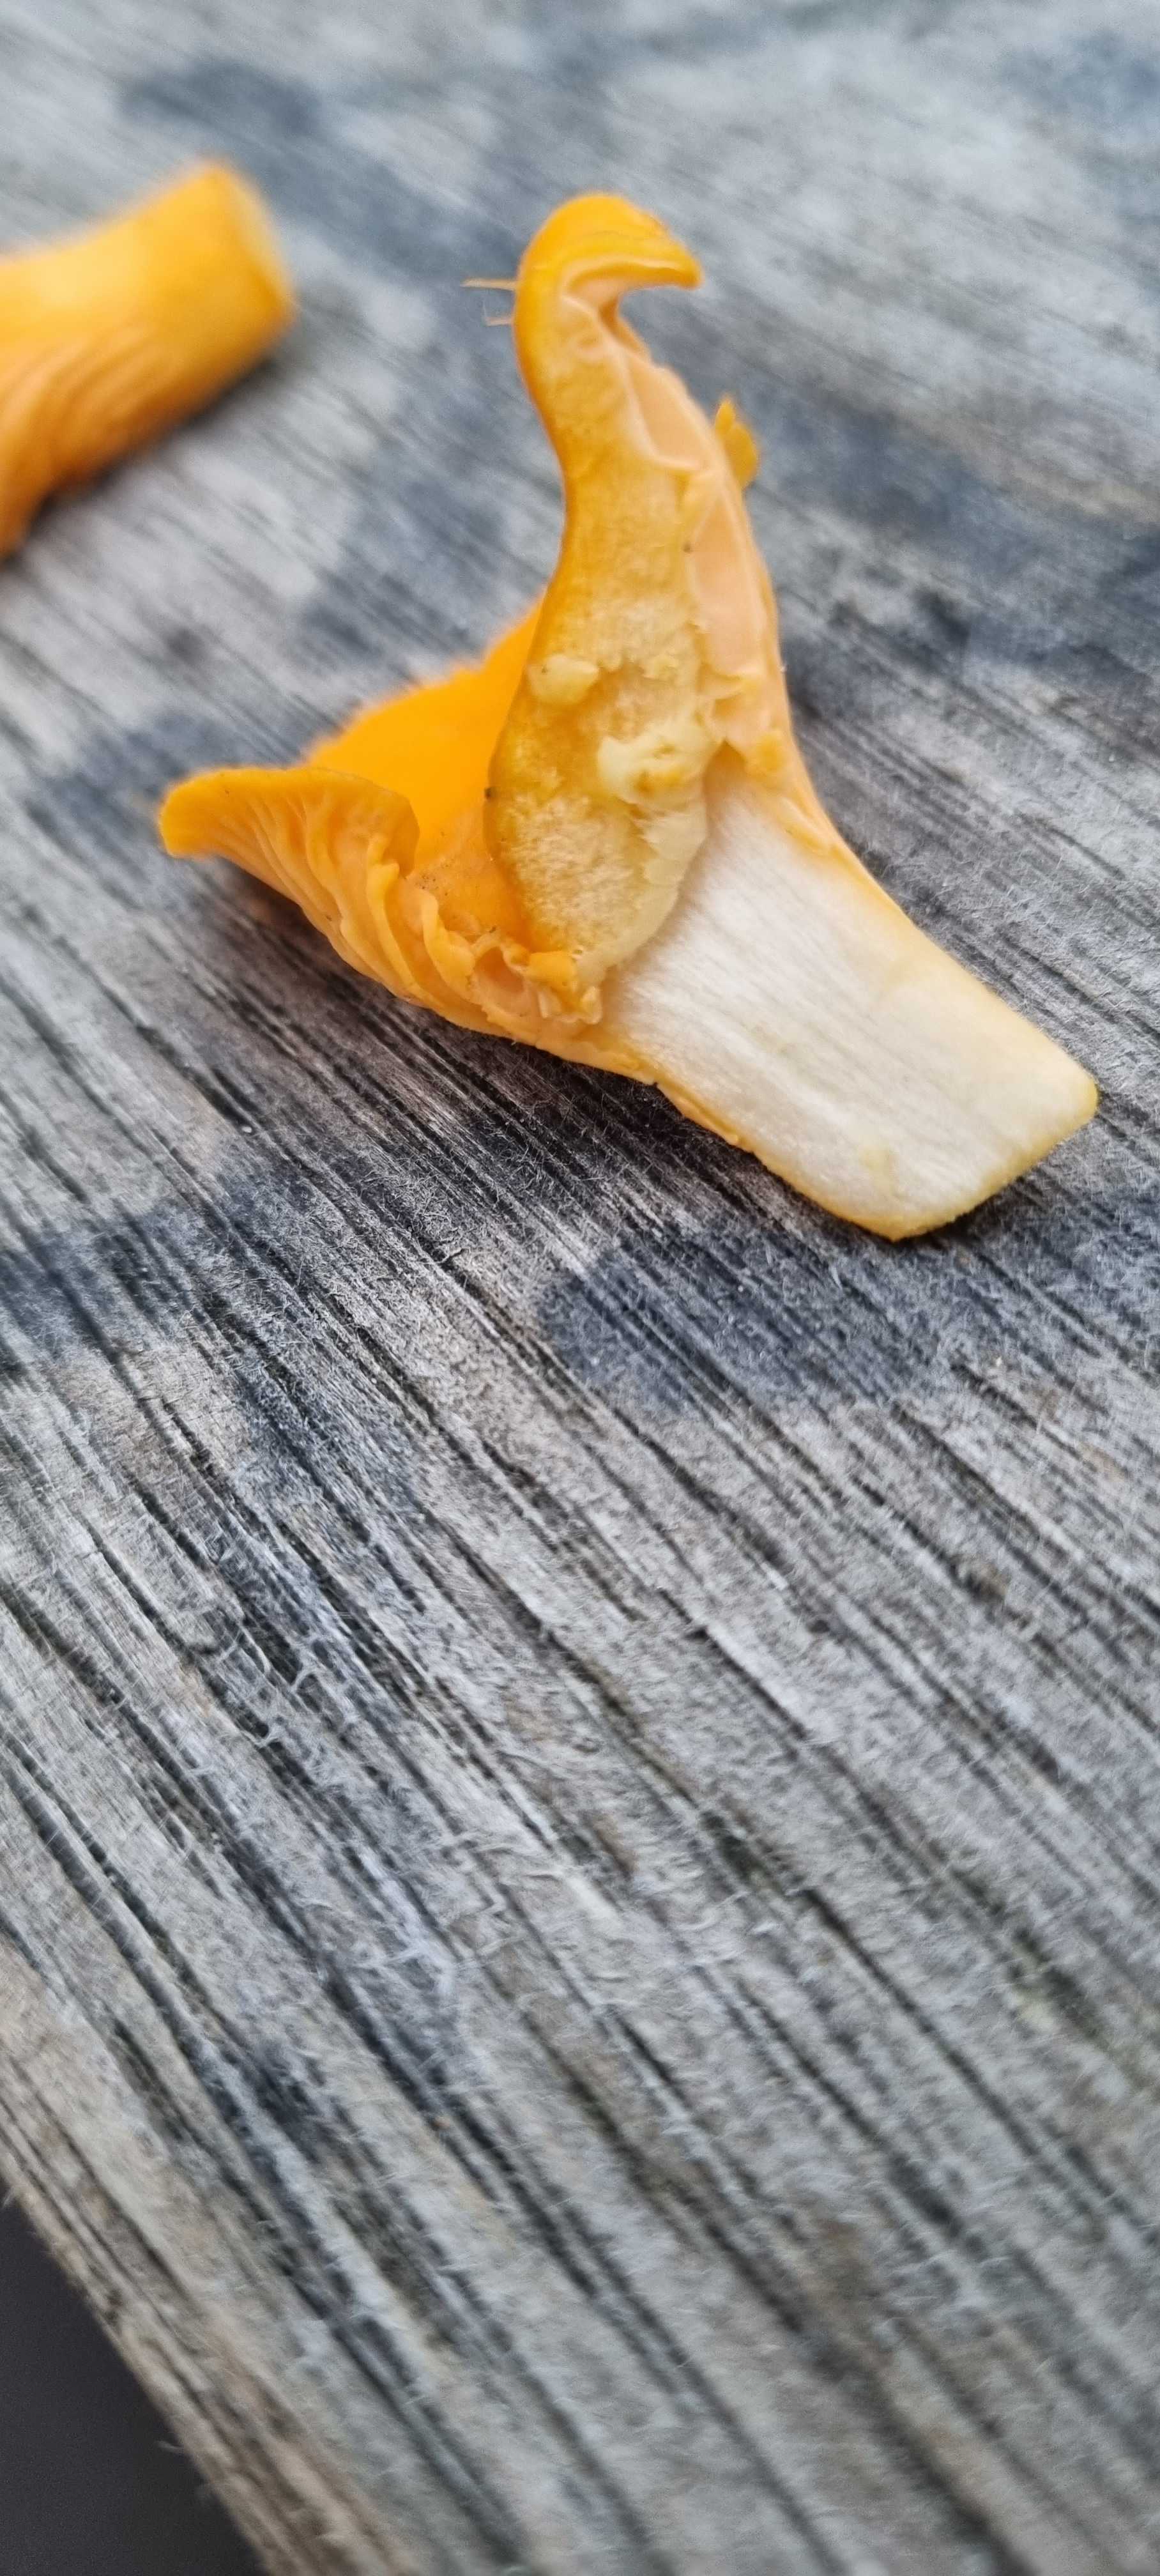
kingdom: Fungi
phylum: Basidiomycota
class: Agaricomycetes
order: Cantharellales
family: Hydnaceae
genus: Cantharellus
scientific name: Cantharellus
